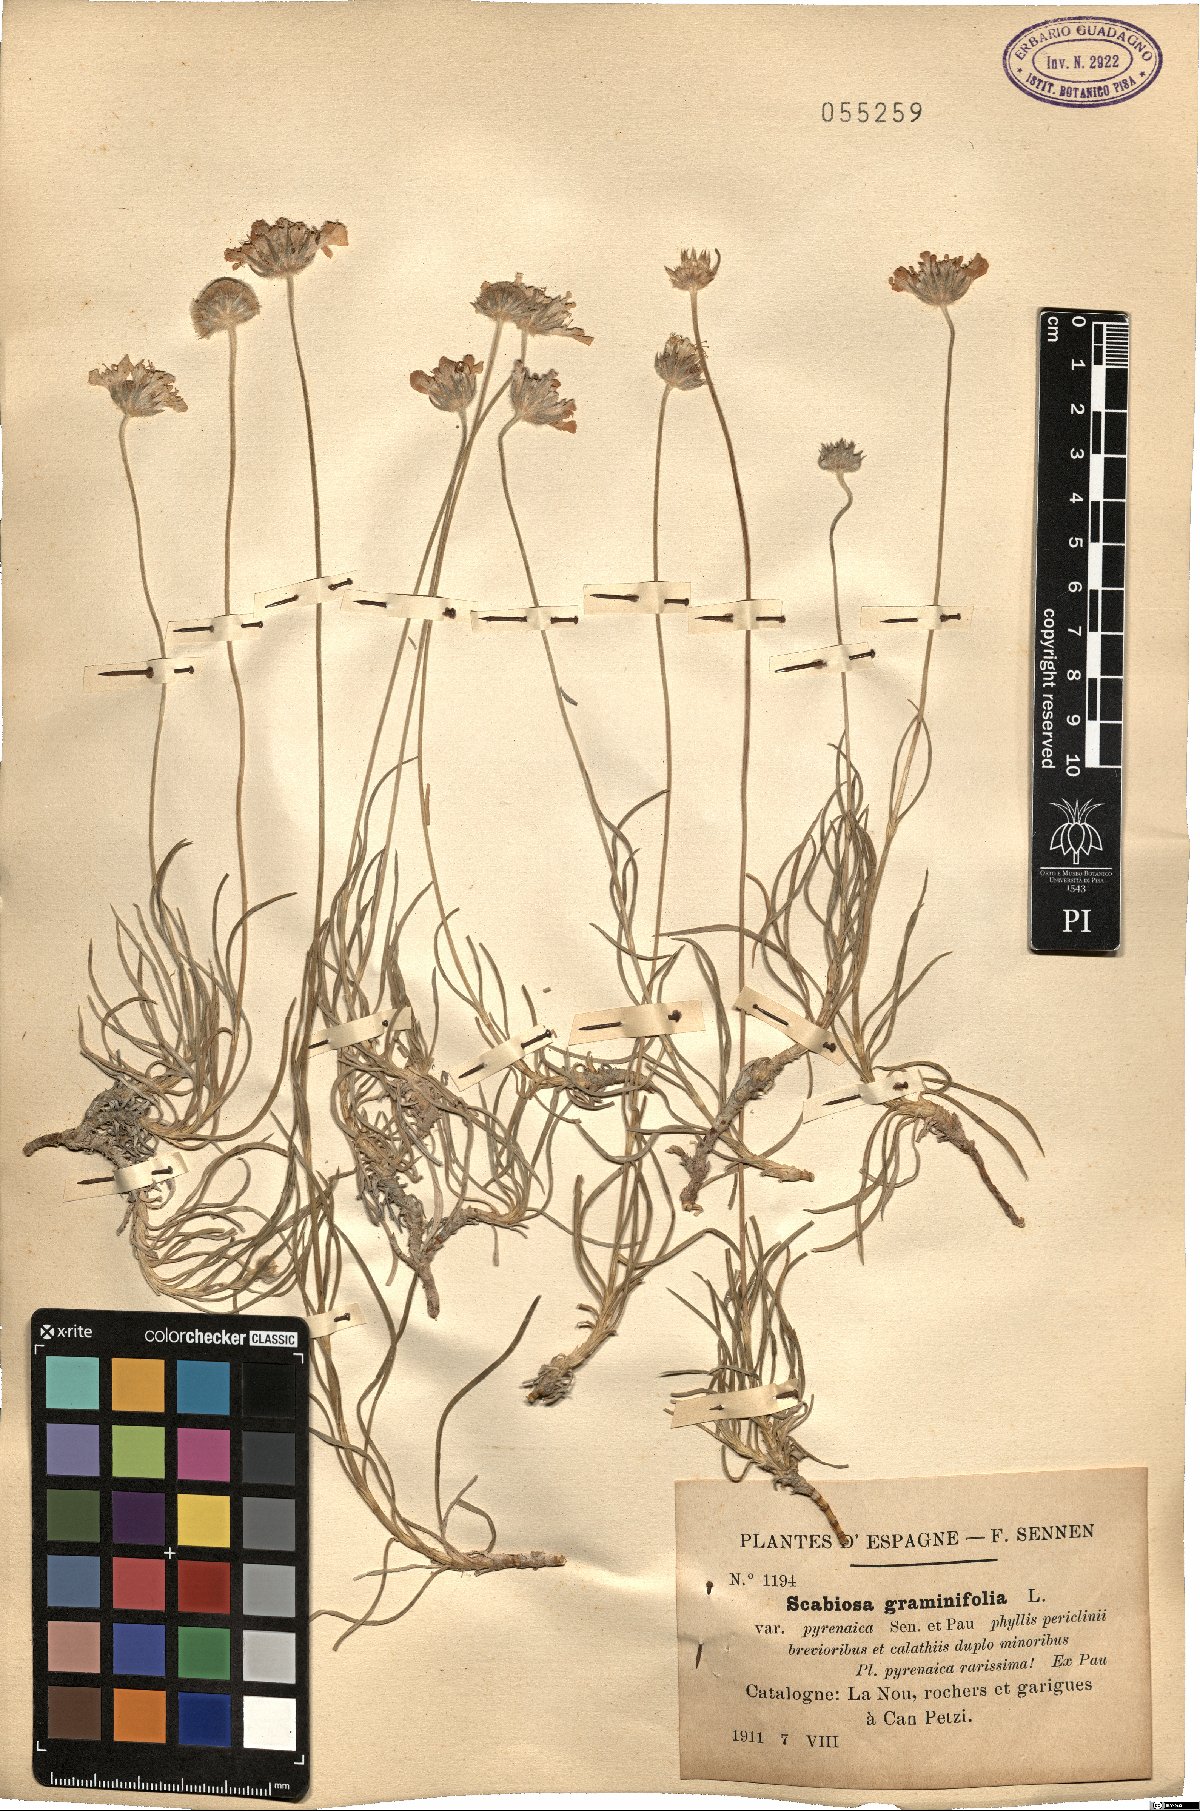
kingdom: Plantae
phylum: Tracheophyta
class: Magnoliopsida
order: Dipsacales
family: Caprifoliaceae
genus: Lomelosia
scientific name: Lomelosia graminifolia
